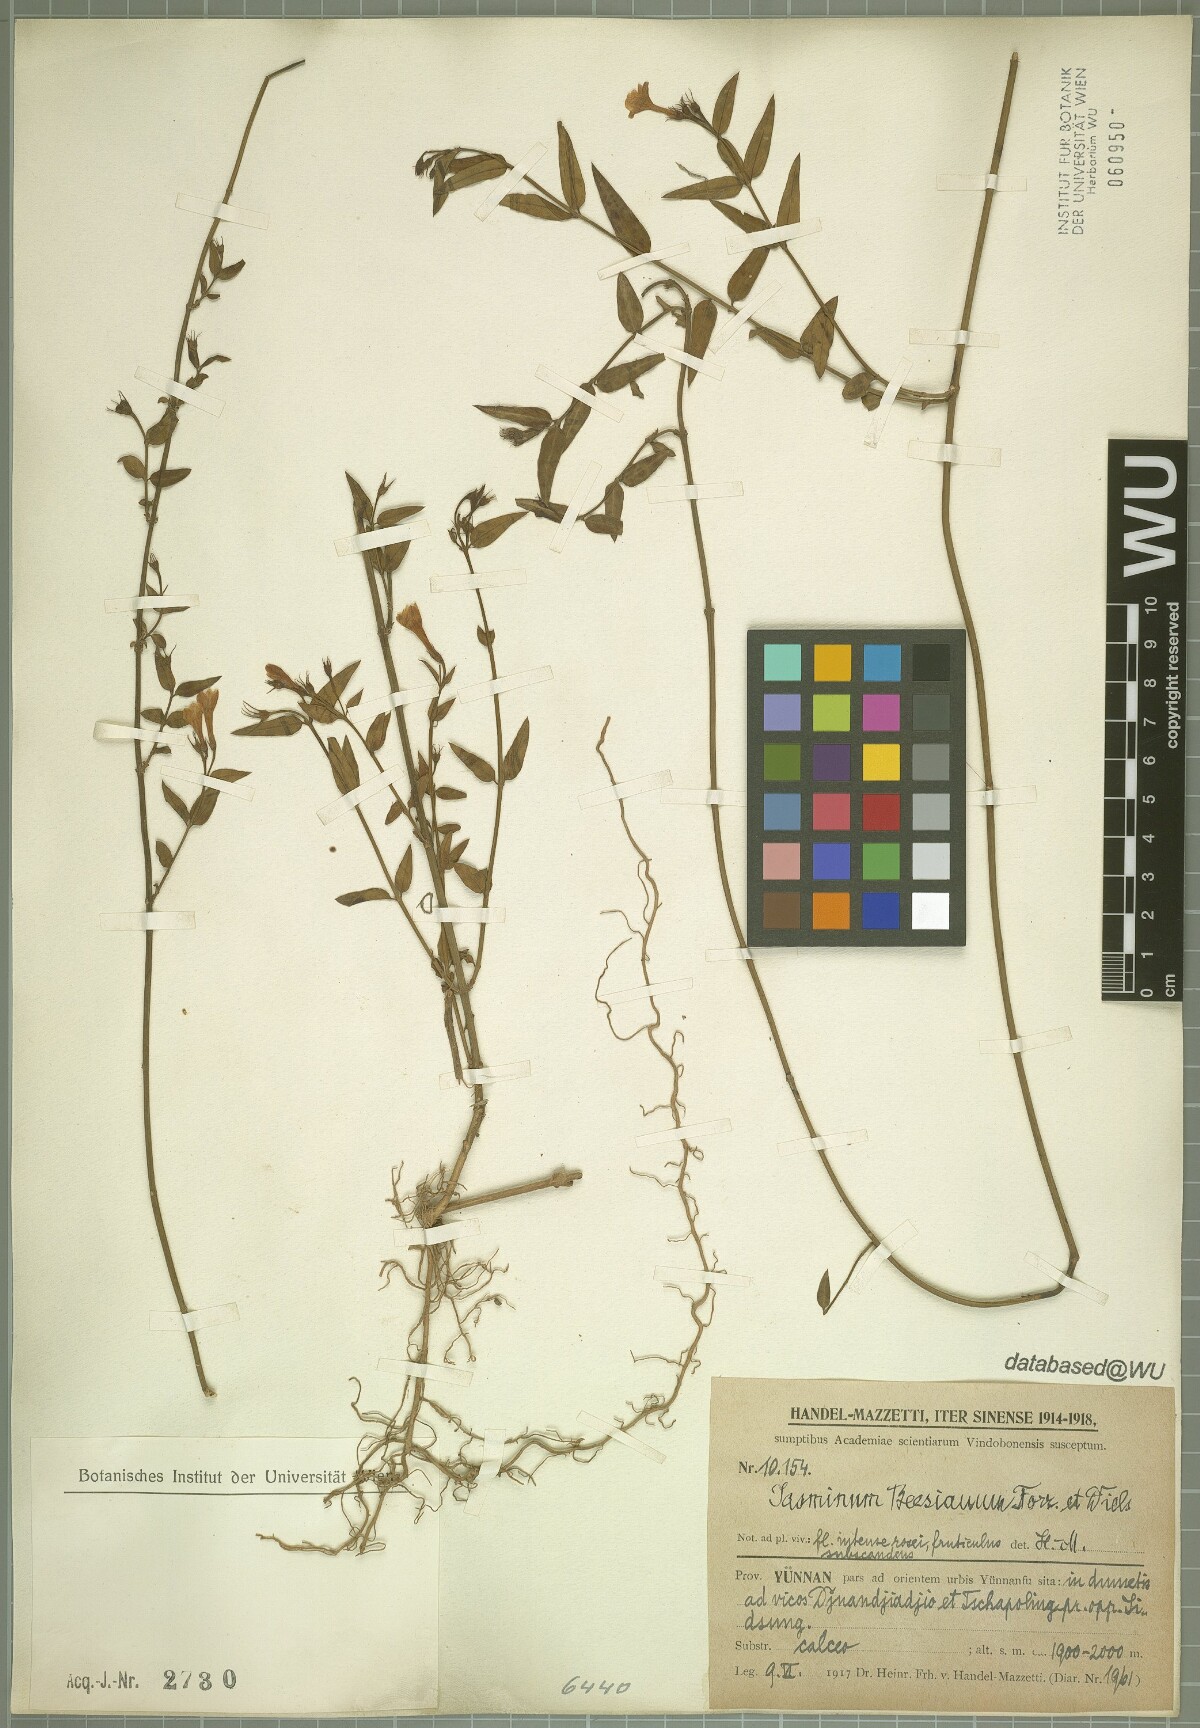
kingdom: Plantae
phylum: Tracheophyta
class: Magnoliopsida
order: Lamiales
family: Oleaceae
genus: Jasminum
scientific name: Jasminum beesianum
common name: Red jasmine
